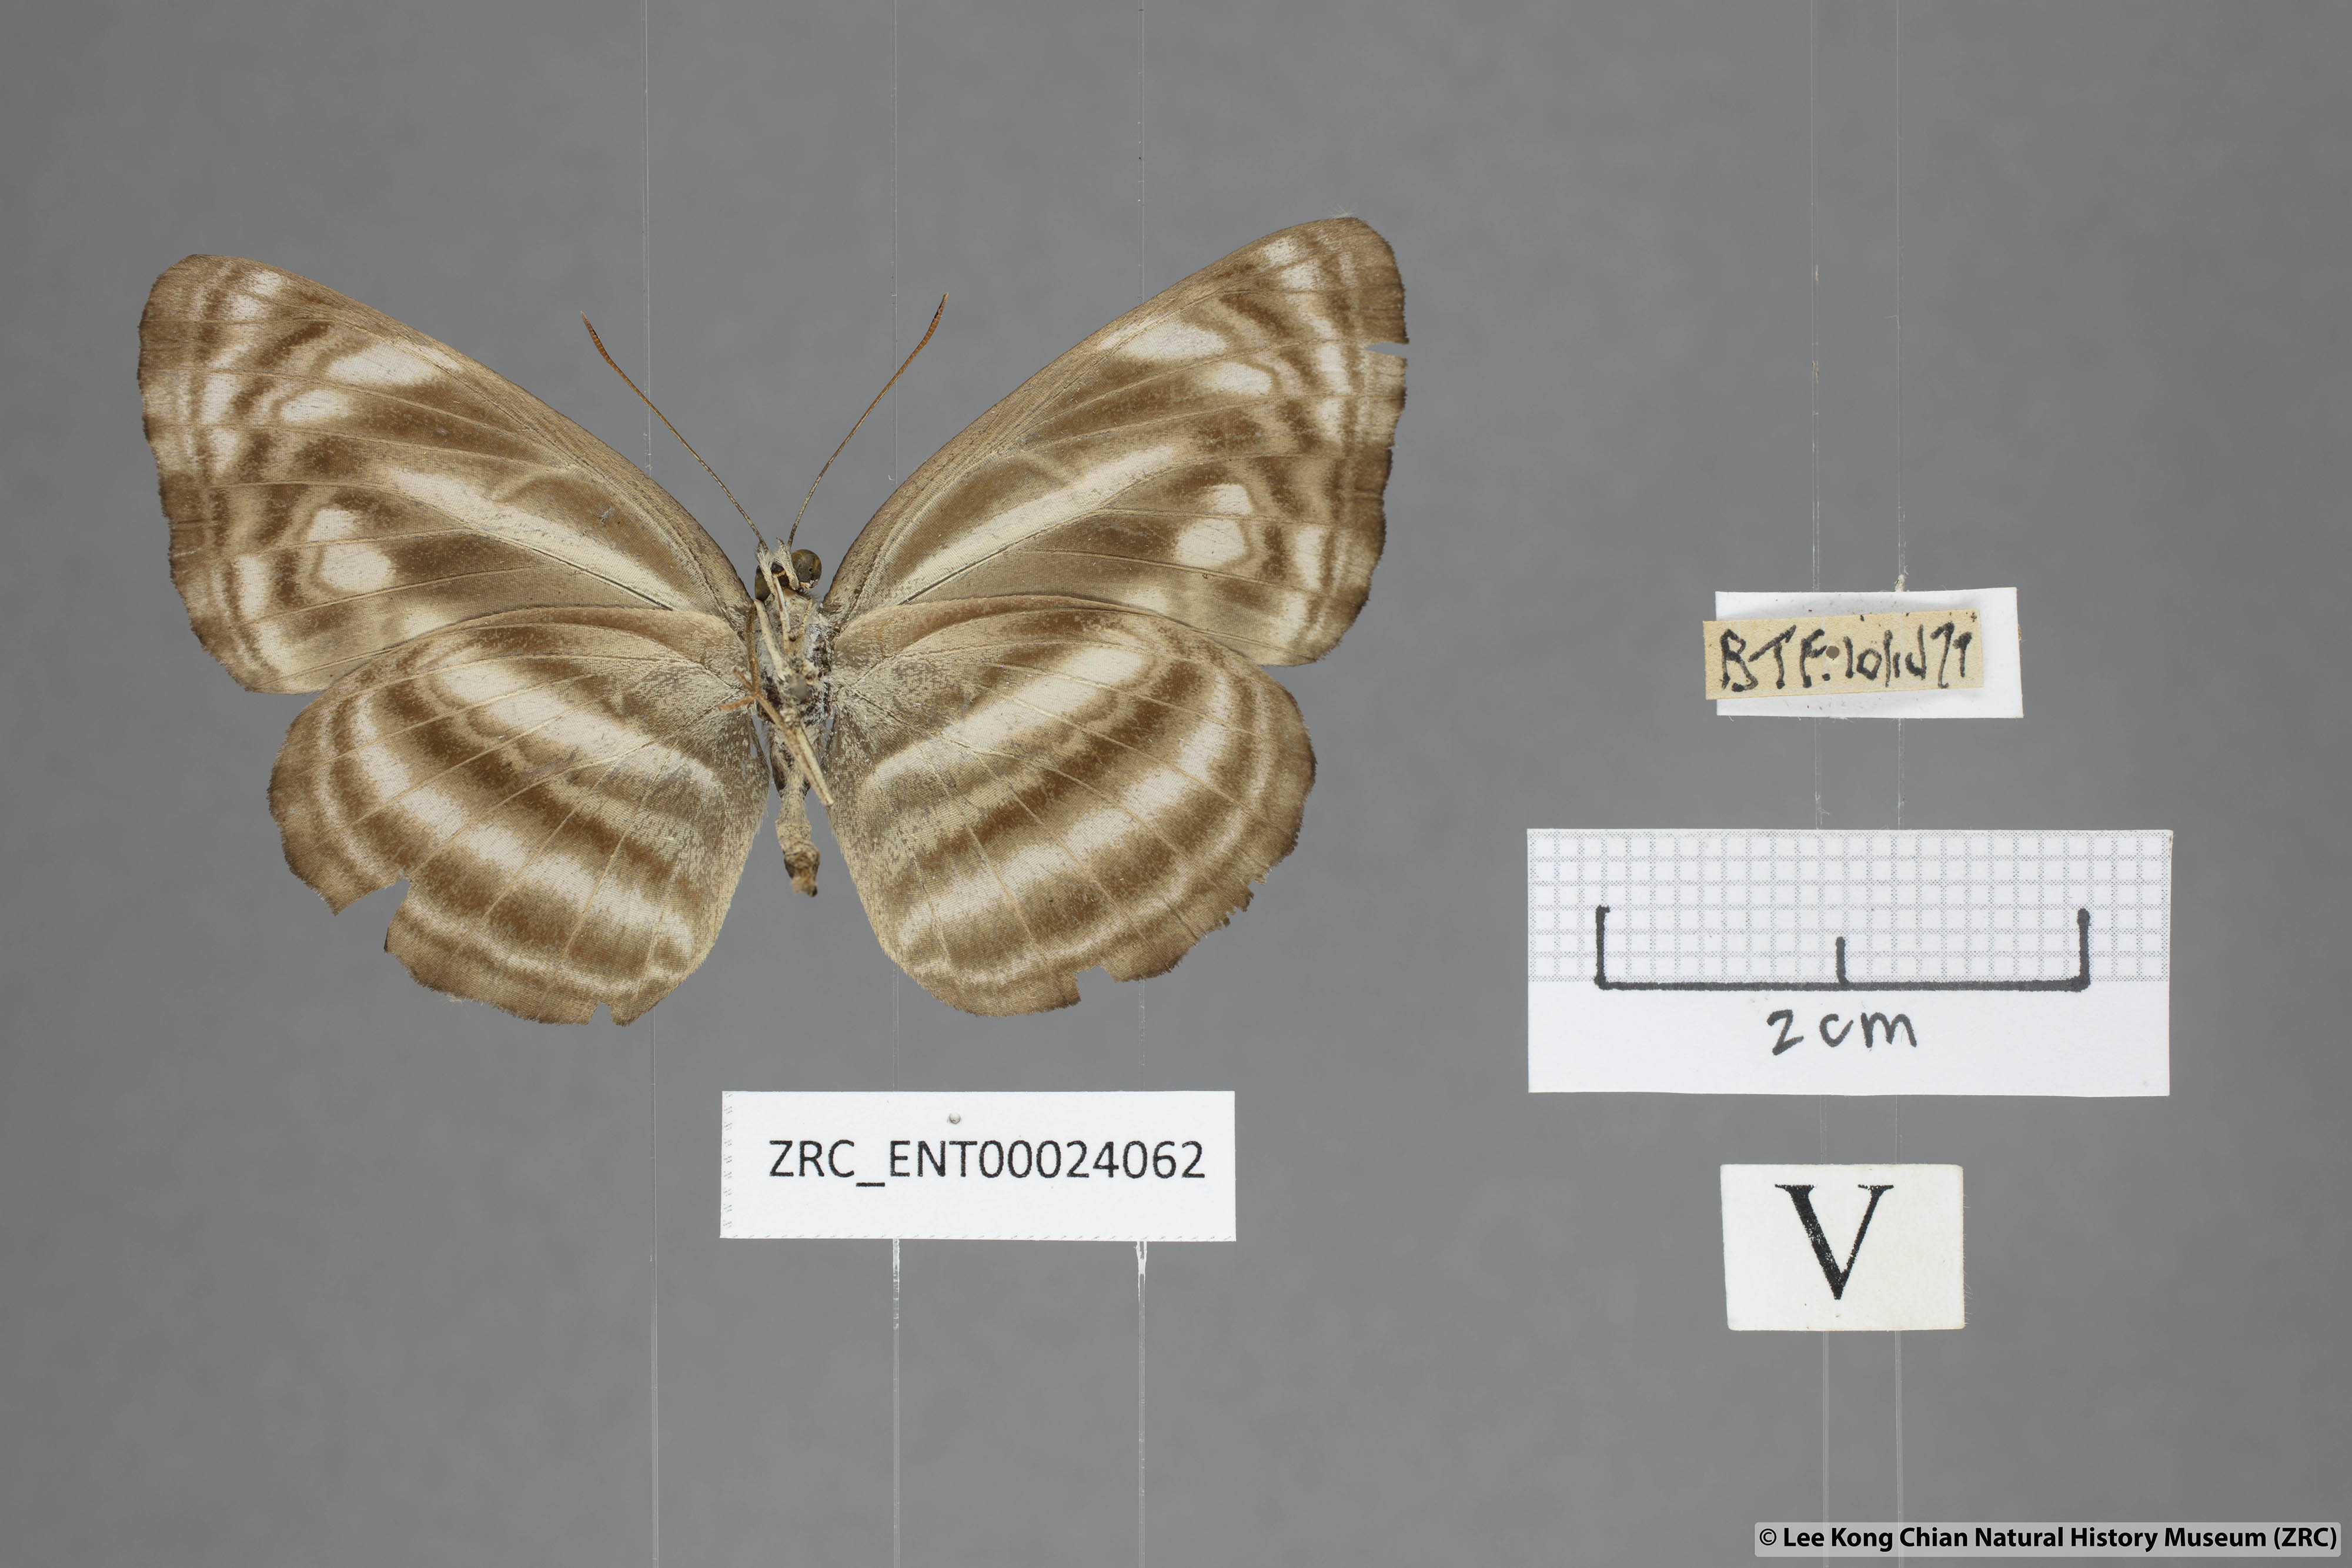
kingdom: Animalia
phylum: Arthropoda
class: Insecta
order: Lepidoptera
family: Nymphalidae
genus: Neptis
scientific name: Neptis omeroda
